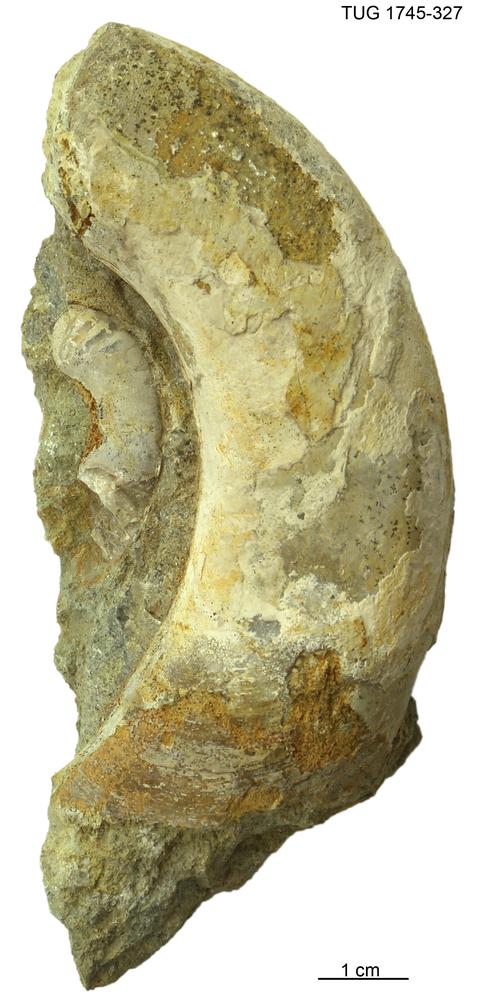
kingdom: Animalia
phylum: Mollusca
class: Cephalopoda
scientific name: Cephalopoda
